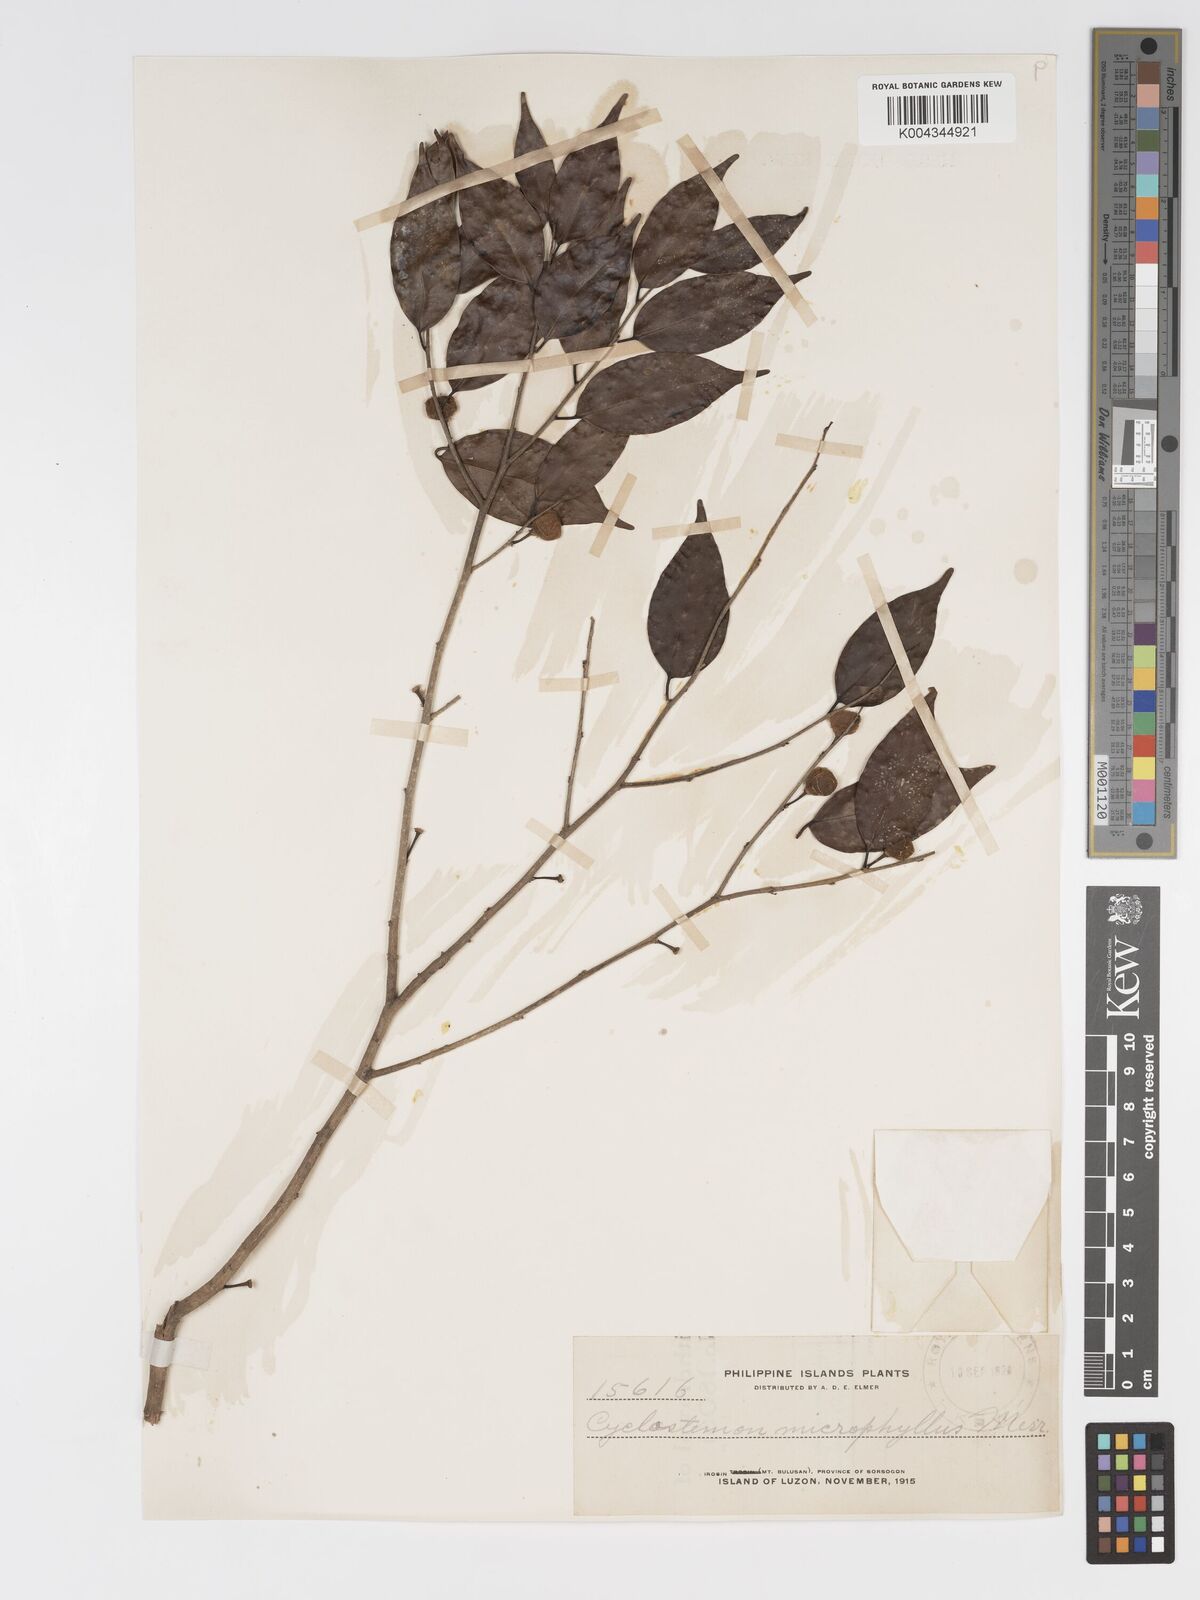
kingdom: Plantae
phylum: Tracheophyta
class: Magnoliopsida
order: Malpighiales
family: Putranjivaceae
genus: Drypetes
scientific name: Drypetes microphylla
